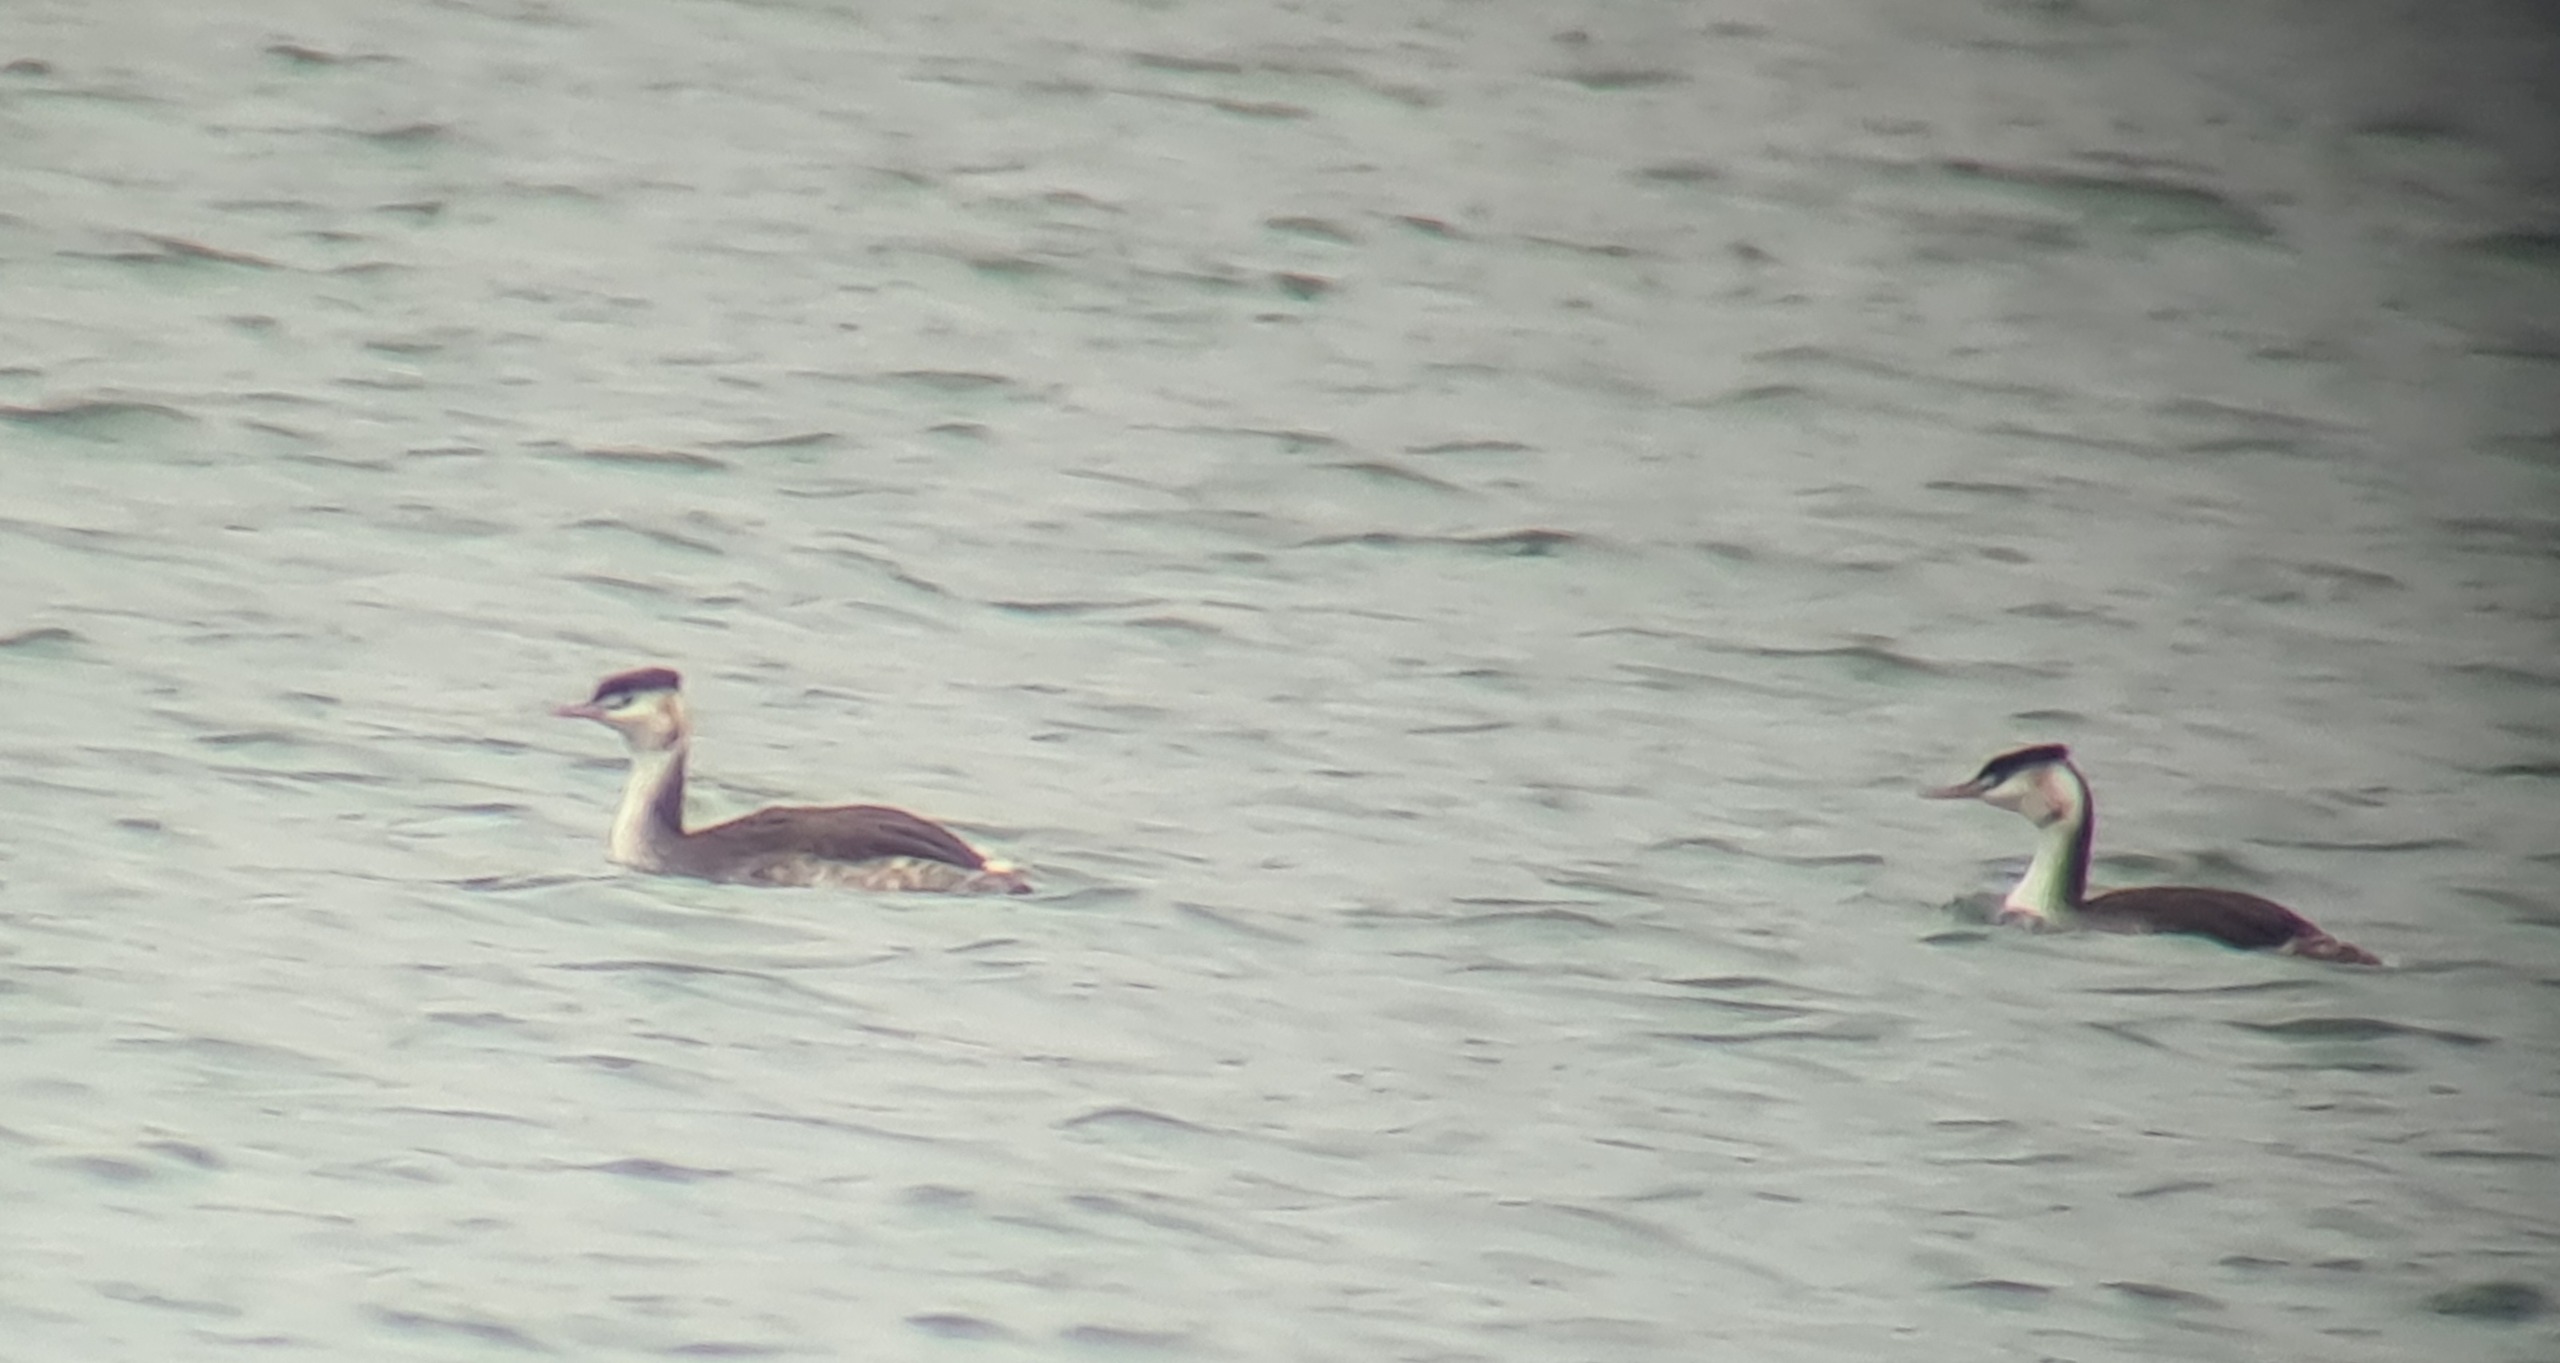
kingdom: Animalia
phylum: Chordata
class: Aves
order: Podicipediformes
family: Podicipedidae
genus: Podiceps
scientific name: Podiceps cristatus
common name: Toppet lappedykker
